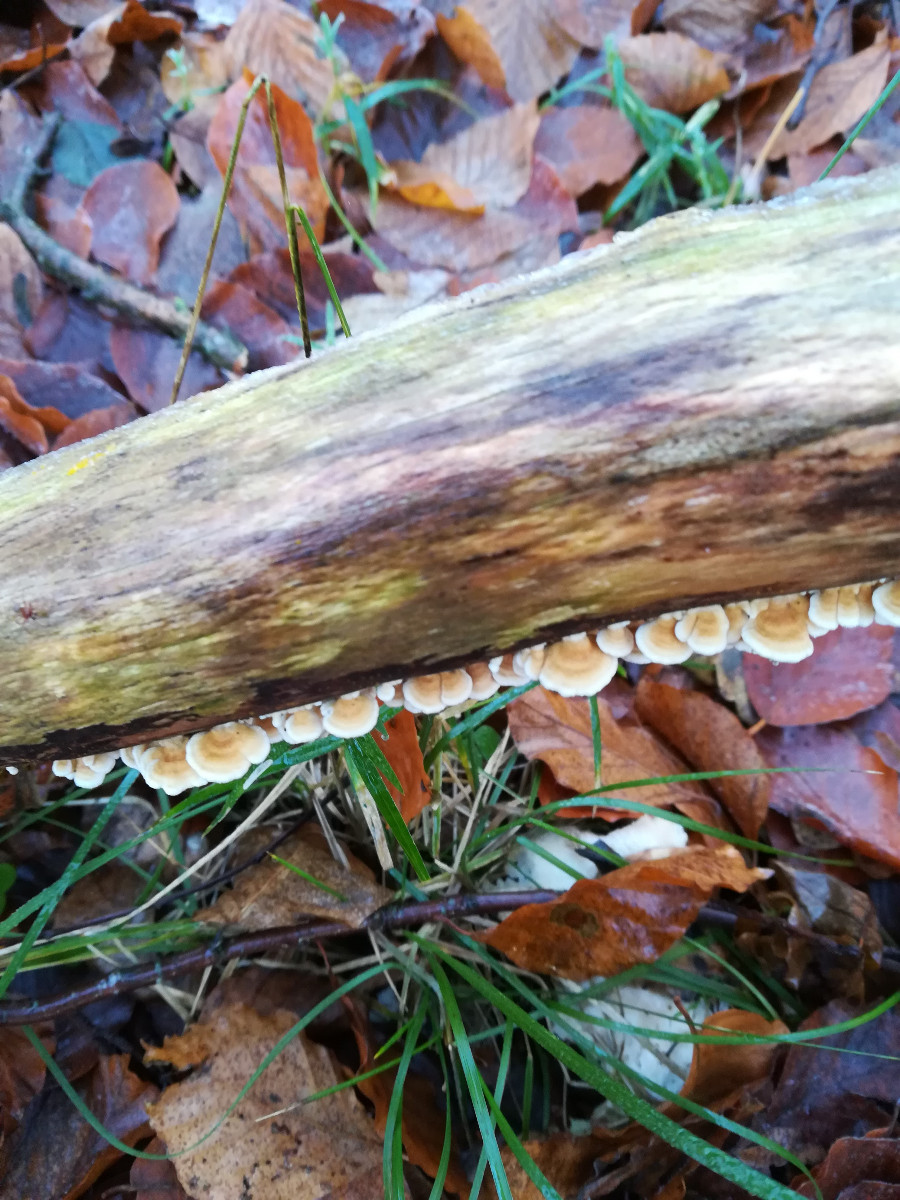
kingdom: Fungi
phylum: Basidiomycota
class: Agaricomycetes
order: Amylocorticiales
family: Amylocorticiaceae
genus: Plicaturopsis
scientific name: Plicaturopsis crispa
